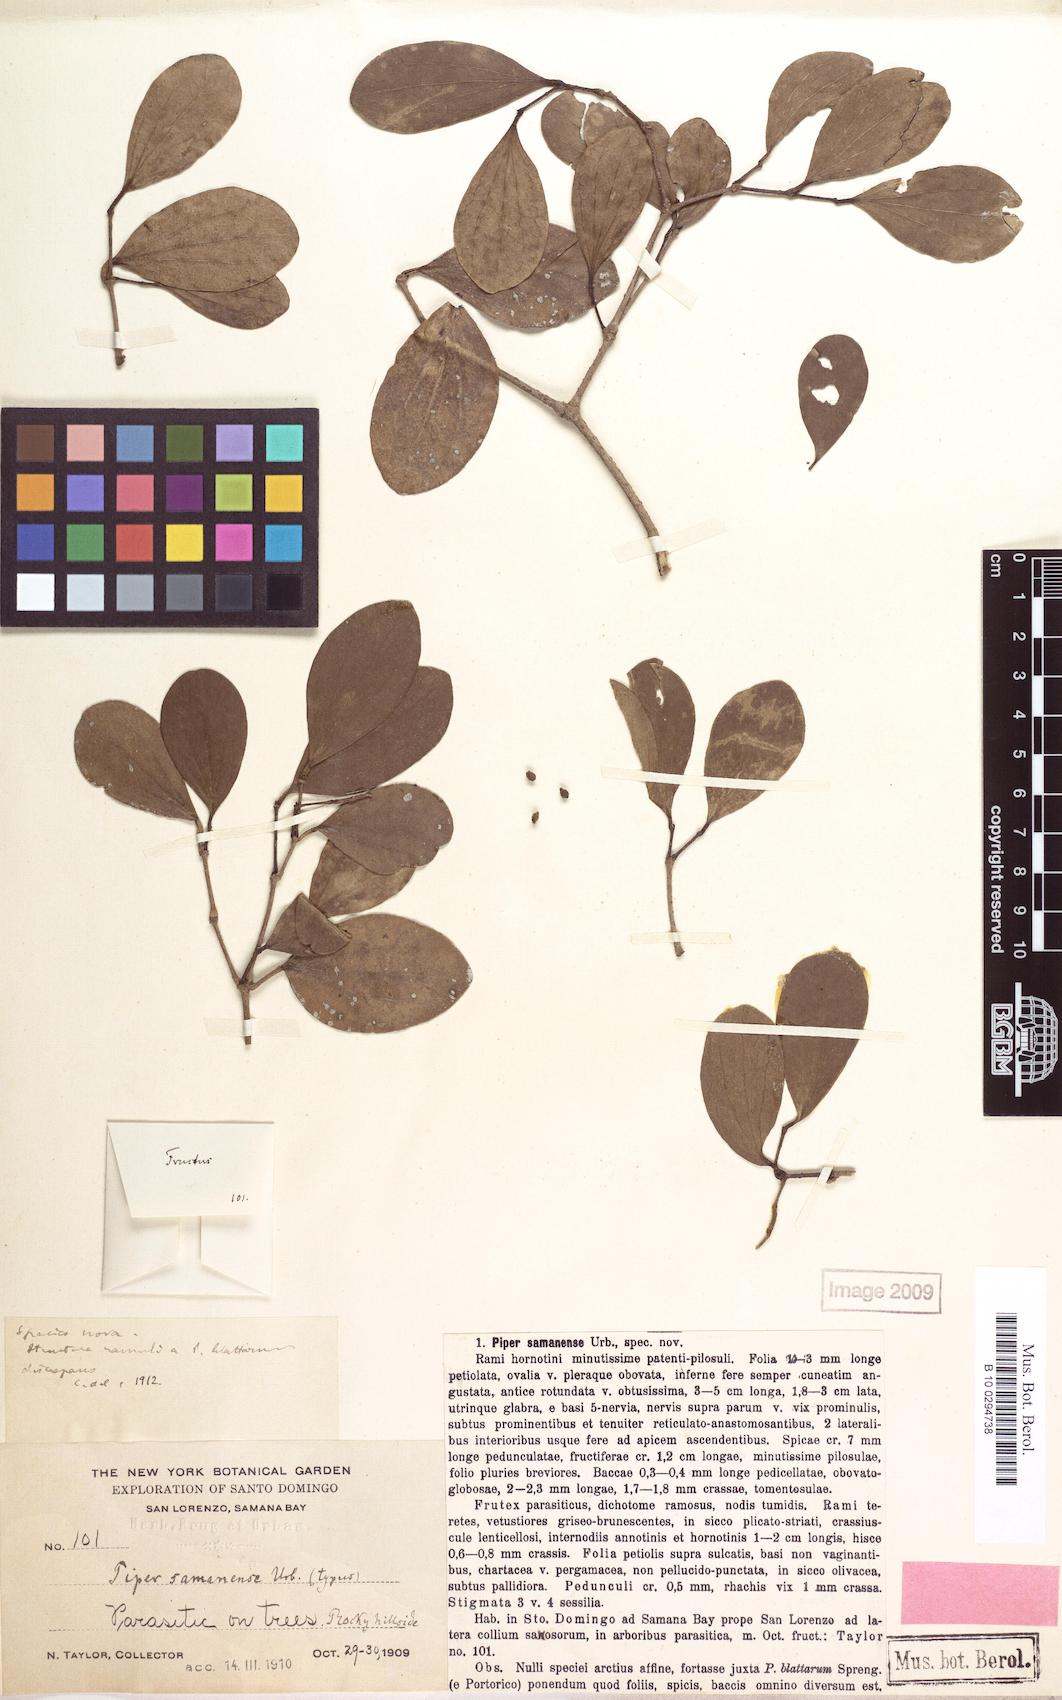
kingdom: Plantae
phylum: Tracheophyta
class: Magnoliopsida
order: Piperales
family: Piperaceae
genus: Piper
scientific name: Piper samanense
